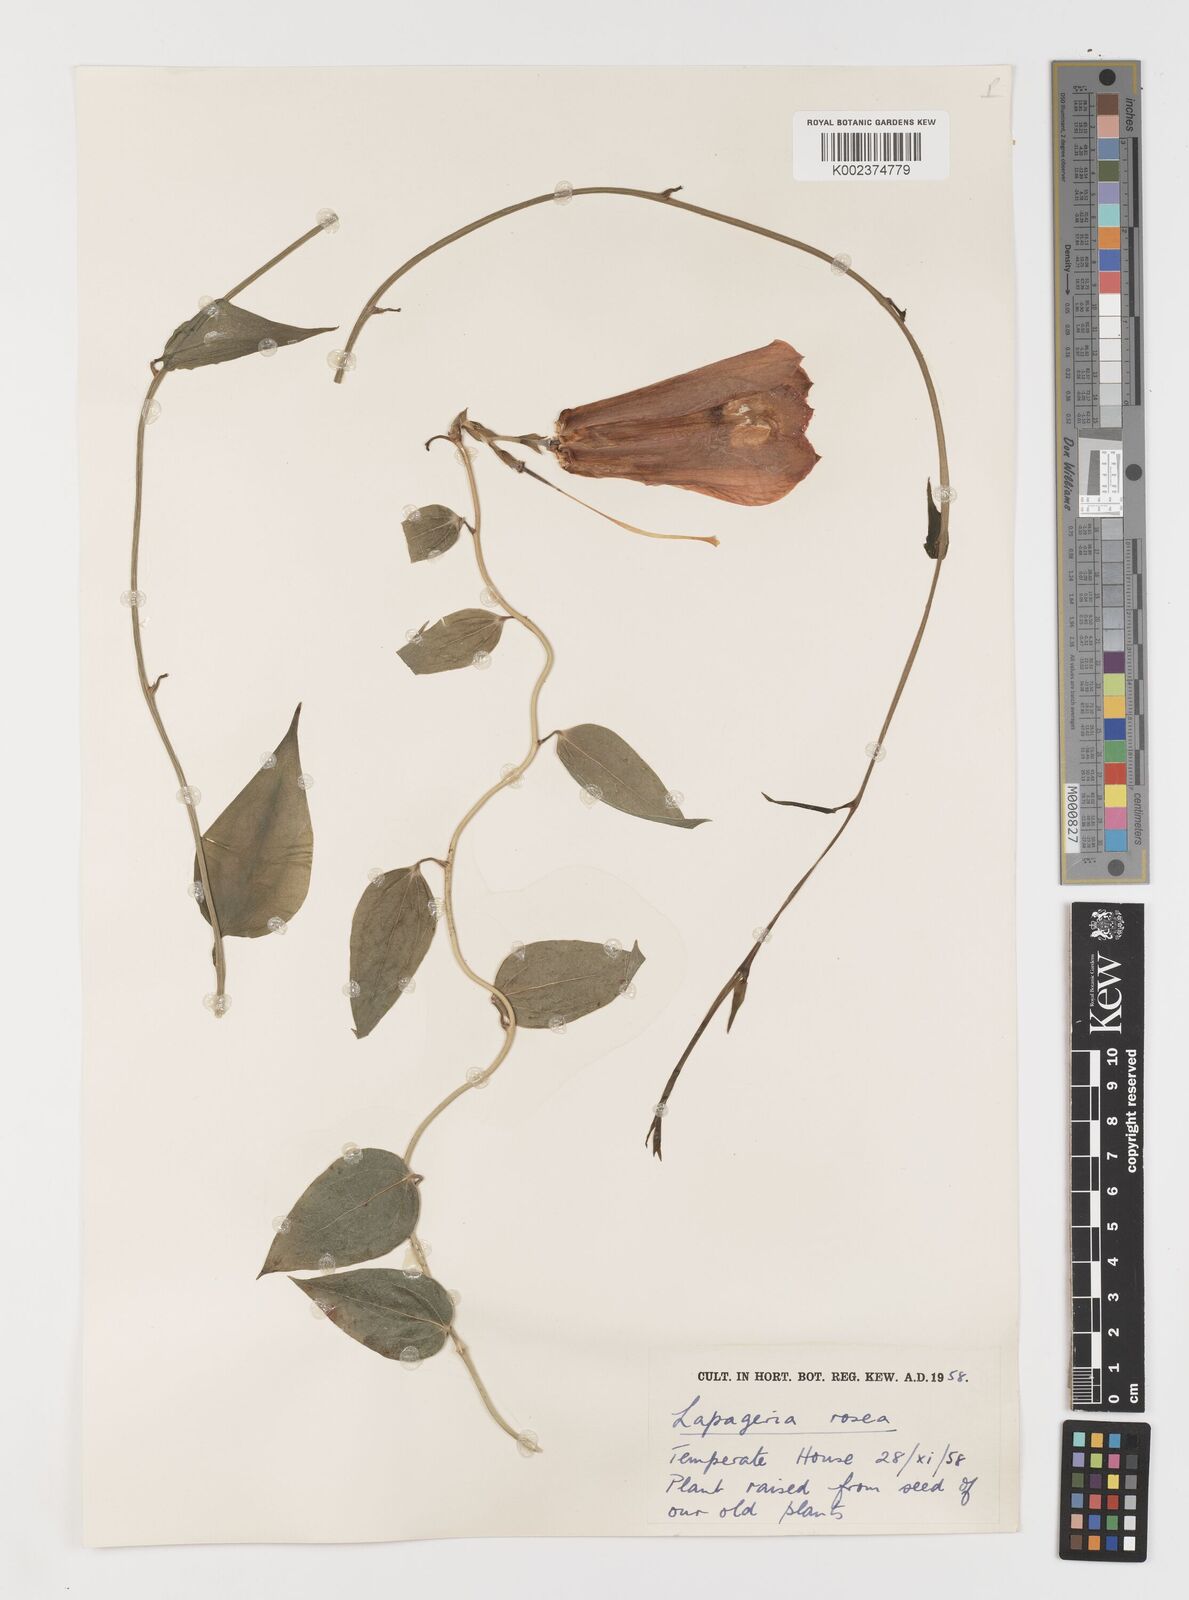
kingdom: Plantae
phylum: Tracheophyta
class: Liliopsida
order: Liliales
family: Philesiaceae
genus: Lapageria
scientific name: Lapageria rosea
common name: Chilean-bellflower
